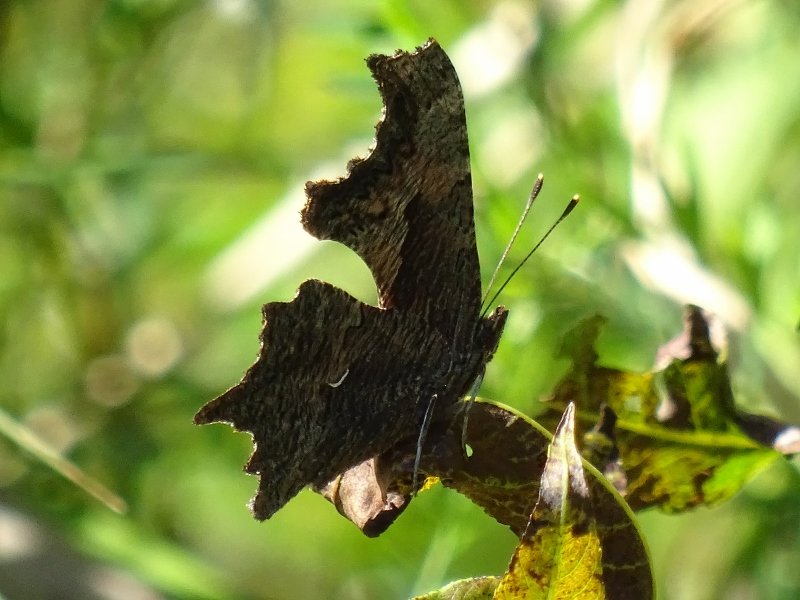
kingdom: Animalia
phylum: Arthropoda
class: Insecta
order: Lepidoptera
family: Nymphalidae
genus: Polygonia
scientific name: Polygonia progne
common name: Gray Comma
